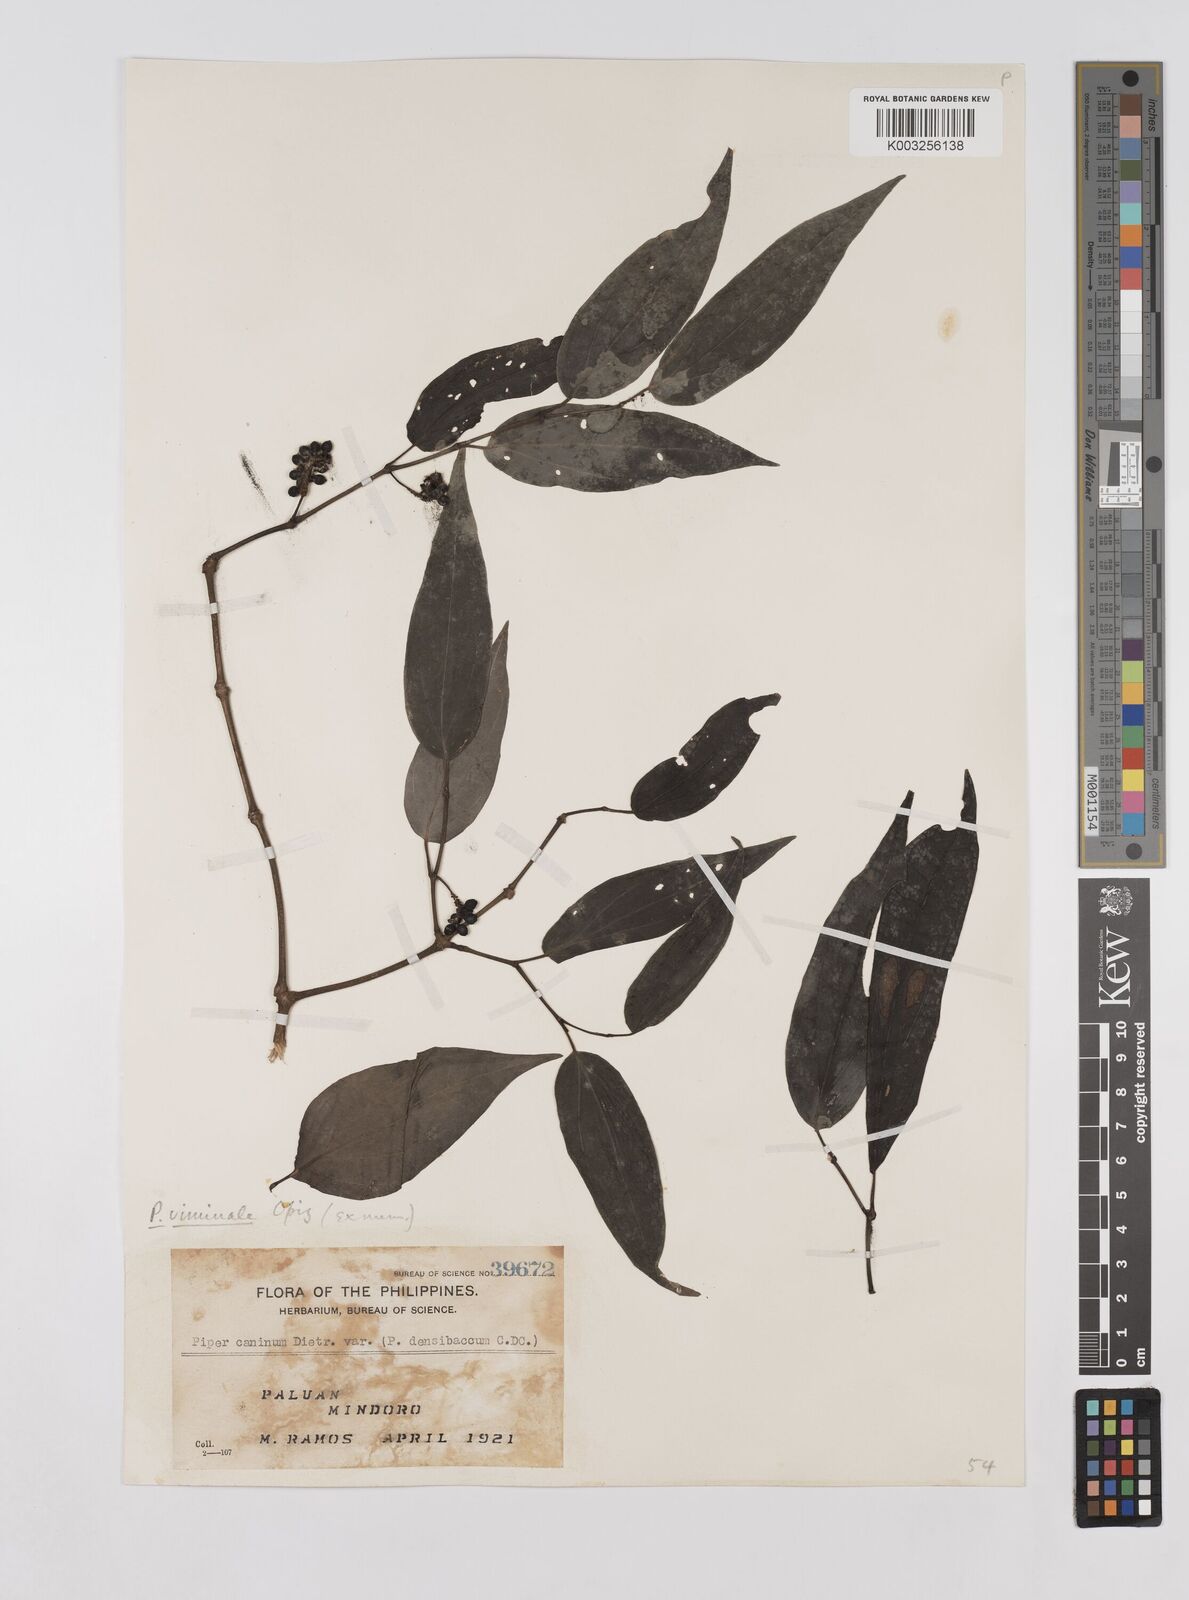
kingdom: Plantae
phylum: Tracheophyta
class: Magnoliopsida
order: Piperales
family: Piperaceae
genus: Piper
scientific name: Piper lanatum
